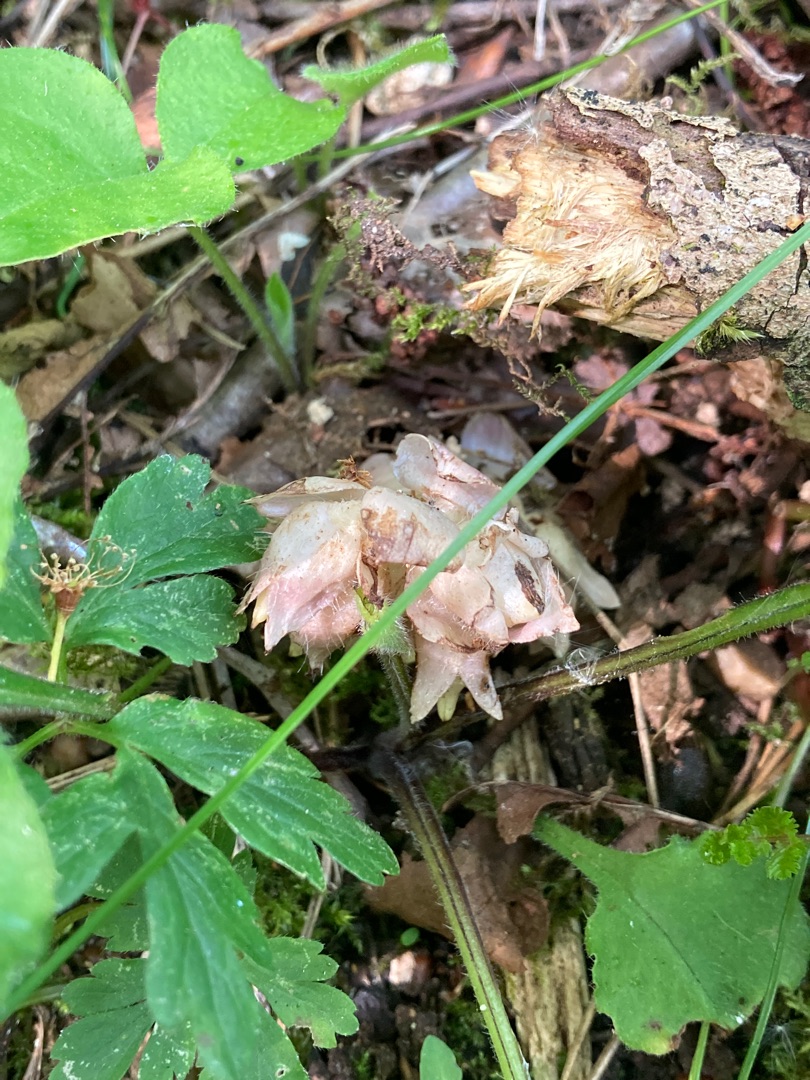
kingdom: Plantae
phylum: Tracheophyta
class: Magnoliopsida
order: Lamiales
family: Orobanchaceae
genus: Lathraea
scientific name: Lathraea squamaria
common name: Skælrod
